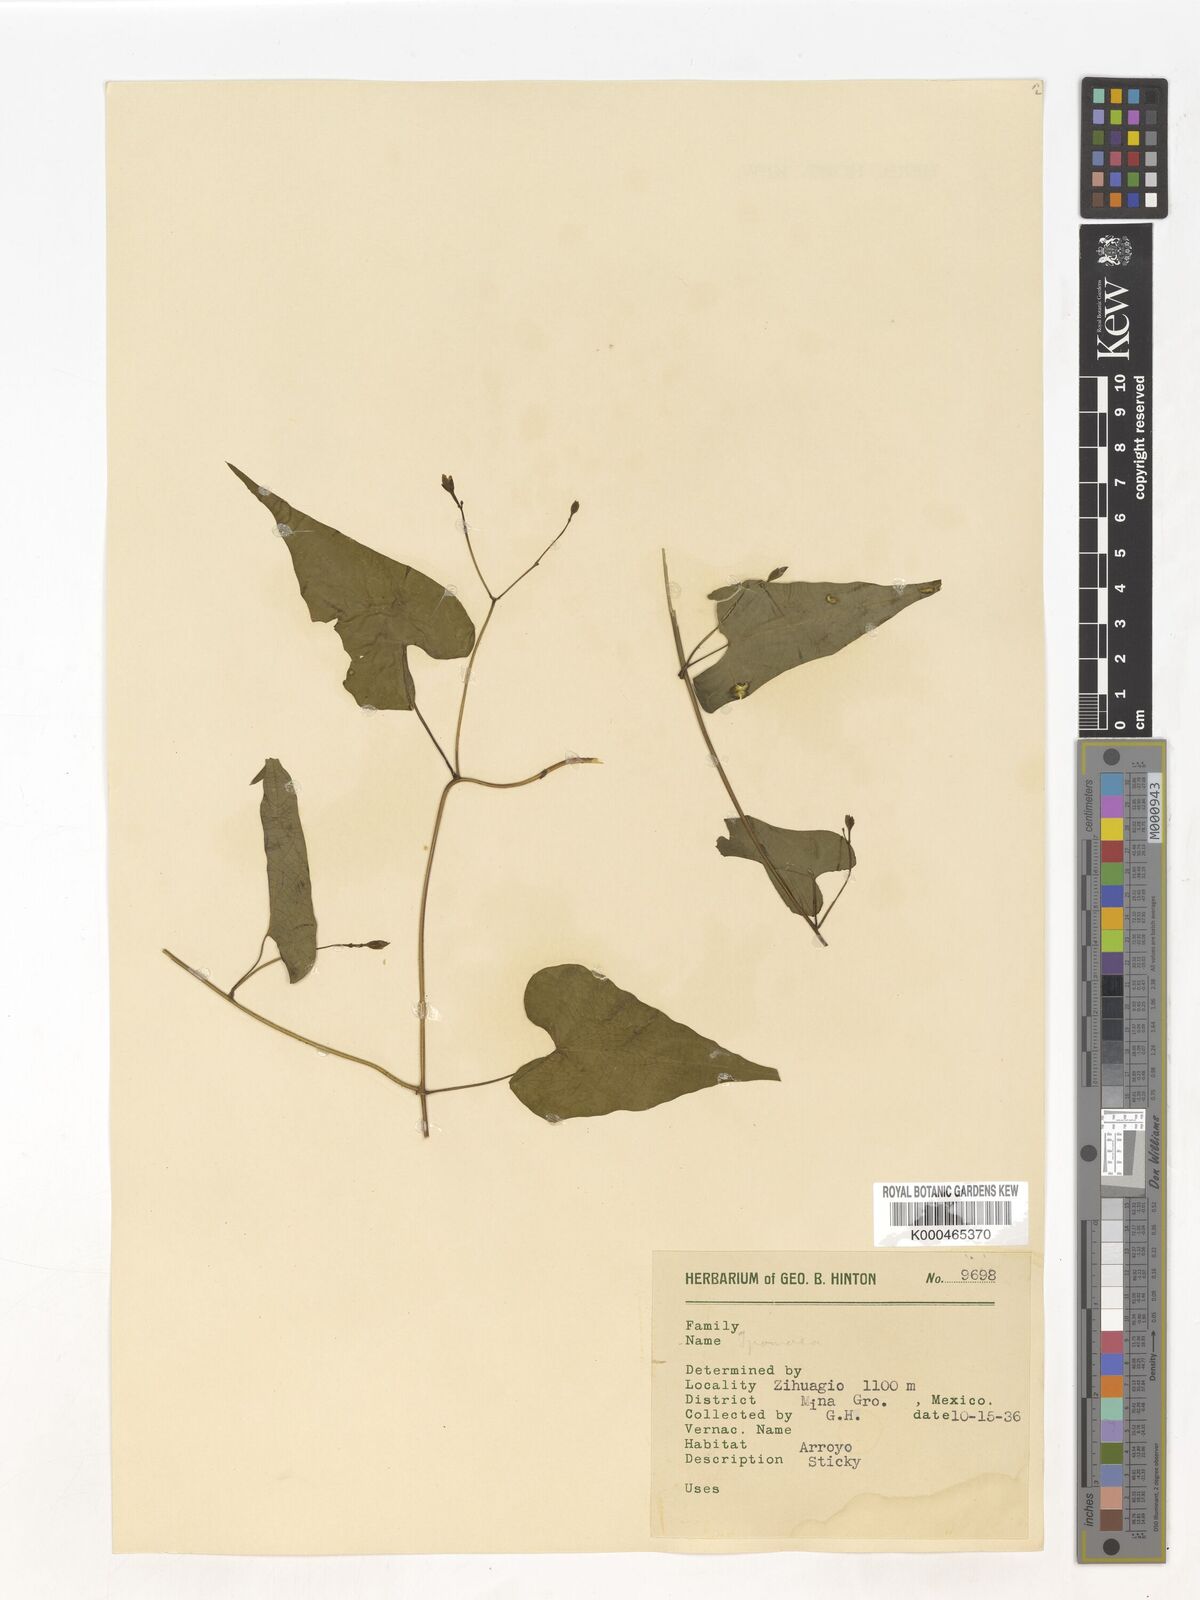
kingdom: Plantae
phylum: Tracheophyta
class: Magnoliopsida
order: Solanales
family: Convolvulaceae
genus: Ipomoea
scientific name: Ipomoea
